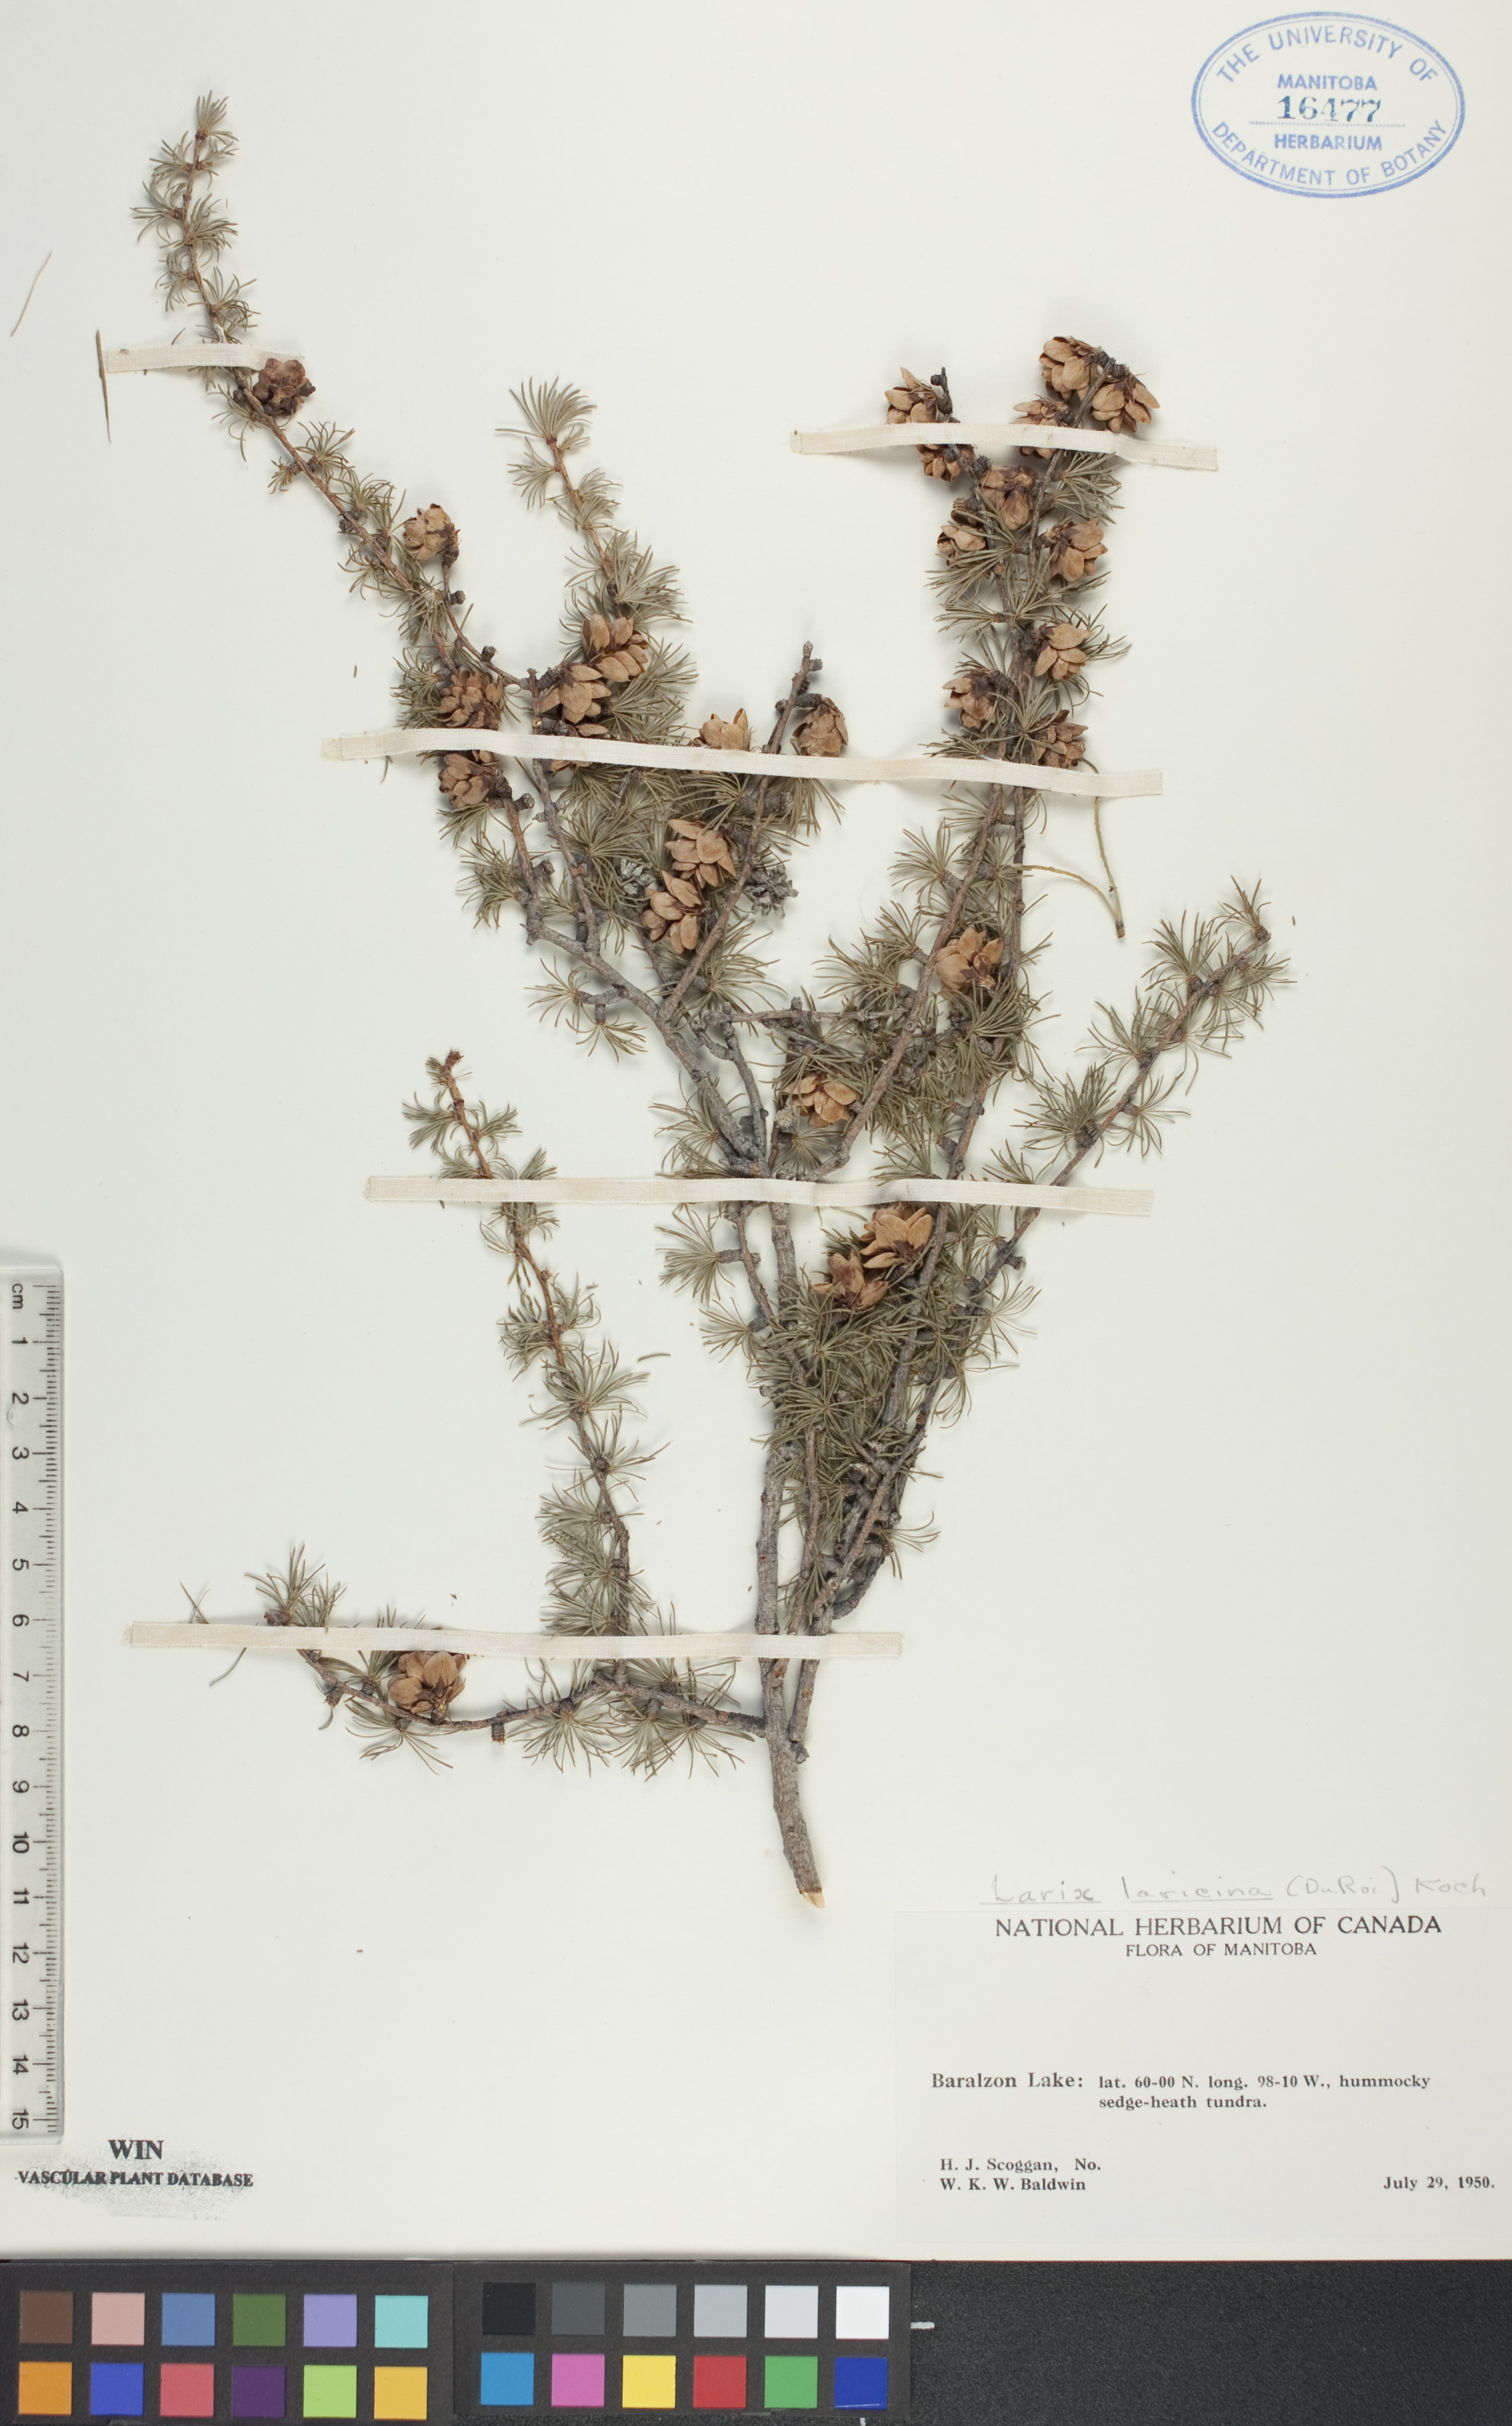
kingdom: Plantae
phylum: Tracheophyta
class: Pinopsida
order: Pinales
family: Pinaceae
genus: Larix
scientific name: Larix laricina
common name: American larch
